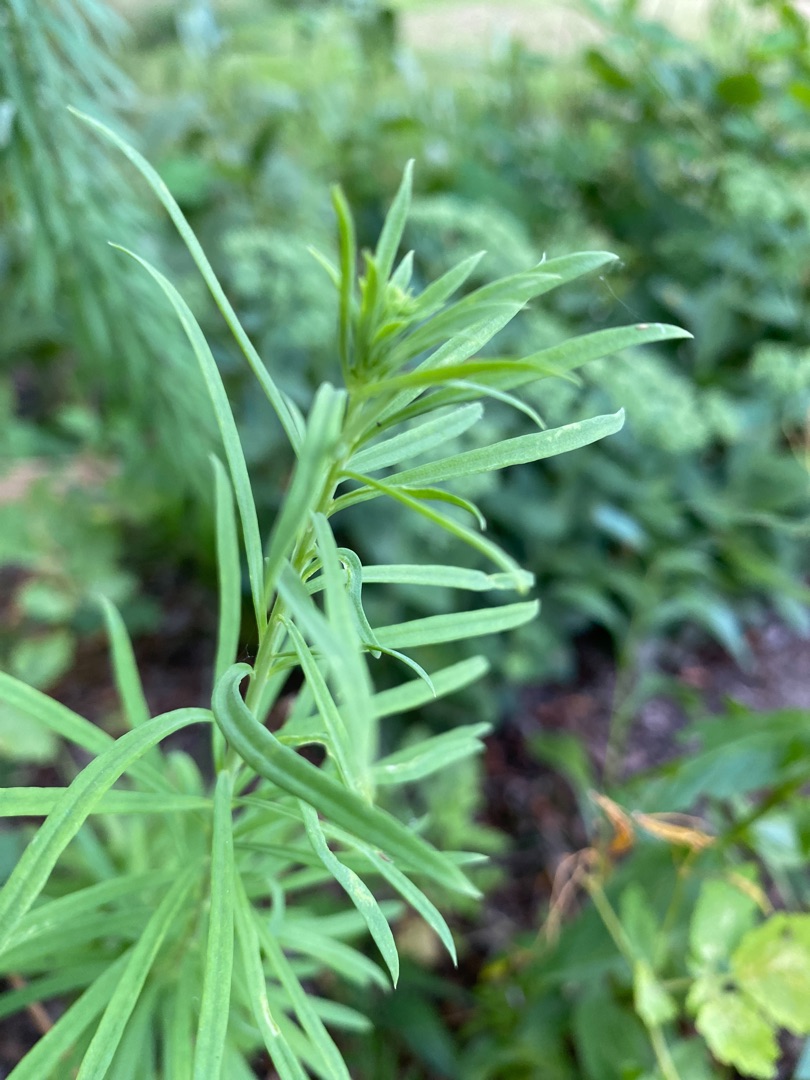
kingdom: Plantae
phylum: Tracheophyta
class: Magnoliopsida
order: Lamiales
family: Plantaginaceae
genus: Linaria
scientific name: Linaria vulgaris
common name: Almindelig torskemund
